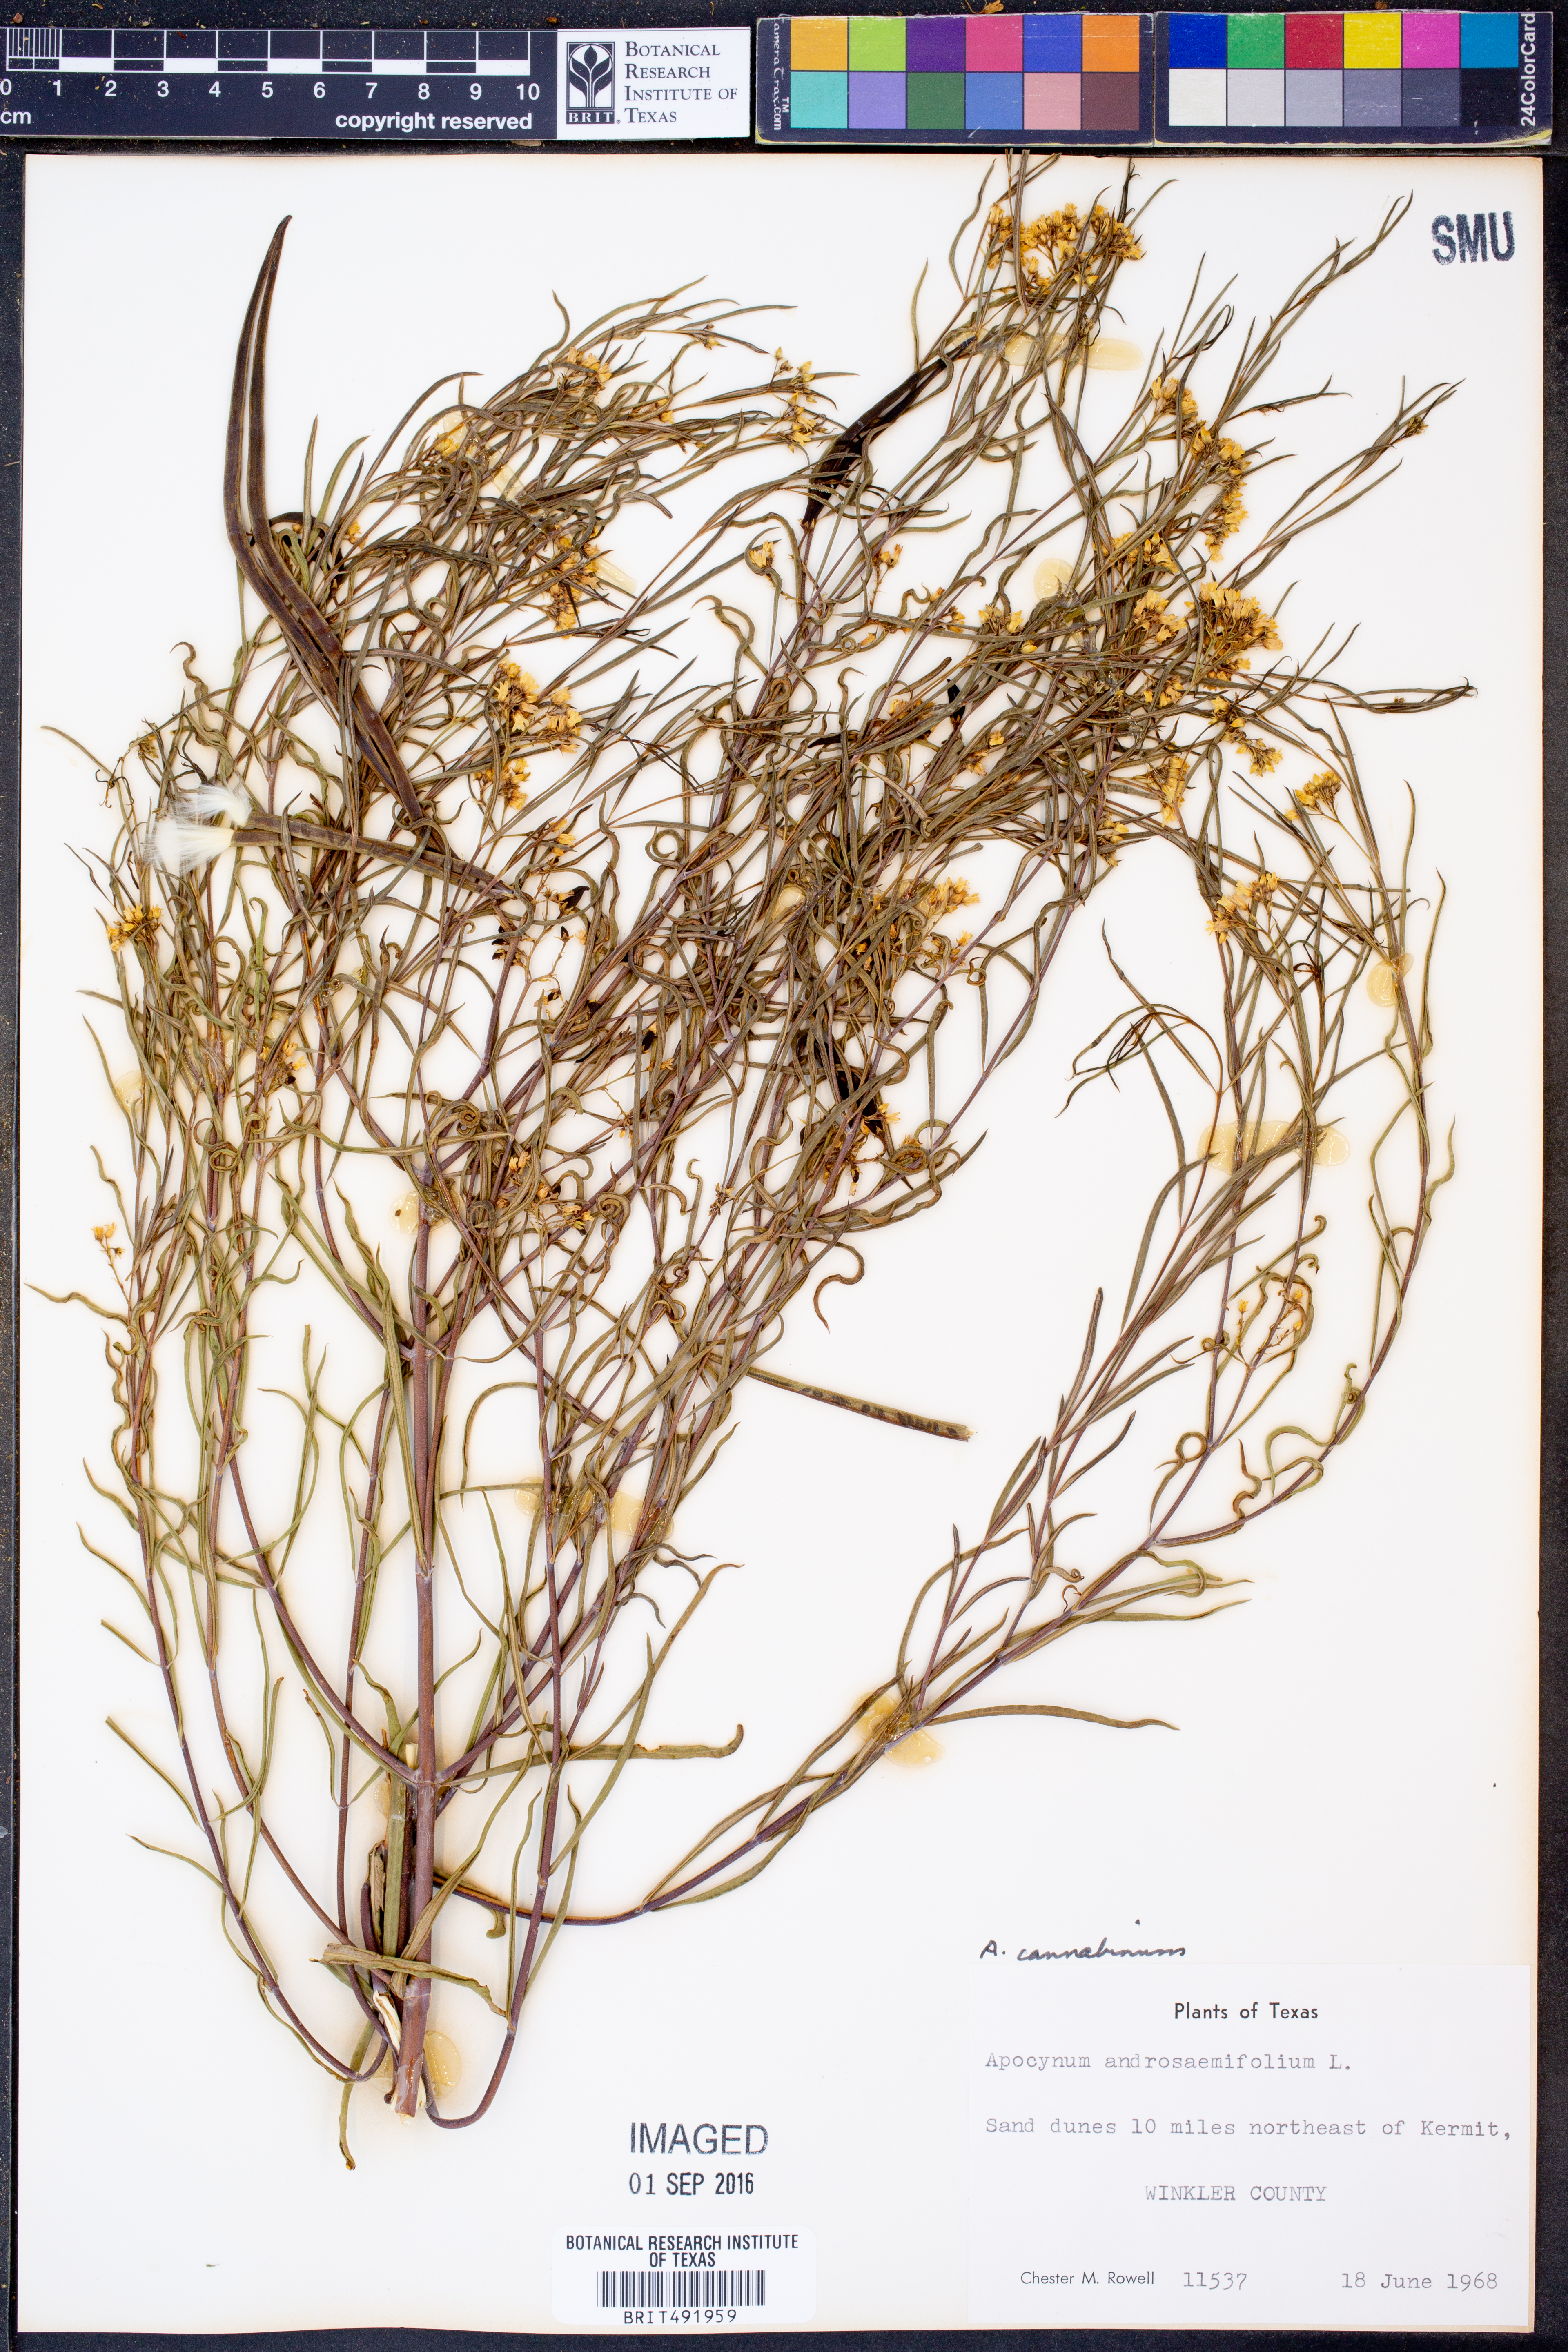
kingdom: Plantae
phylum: Tracheophyta
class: Magnoliopsida
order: Gentianales
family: Apocynaceae
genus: Apocynum
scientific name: Apocynum androsaemifolium
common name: Spreading dogbane
